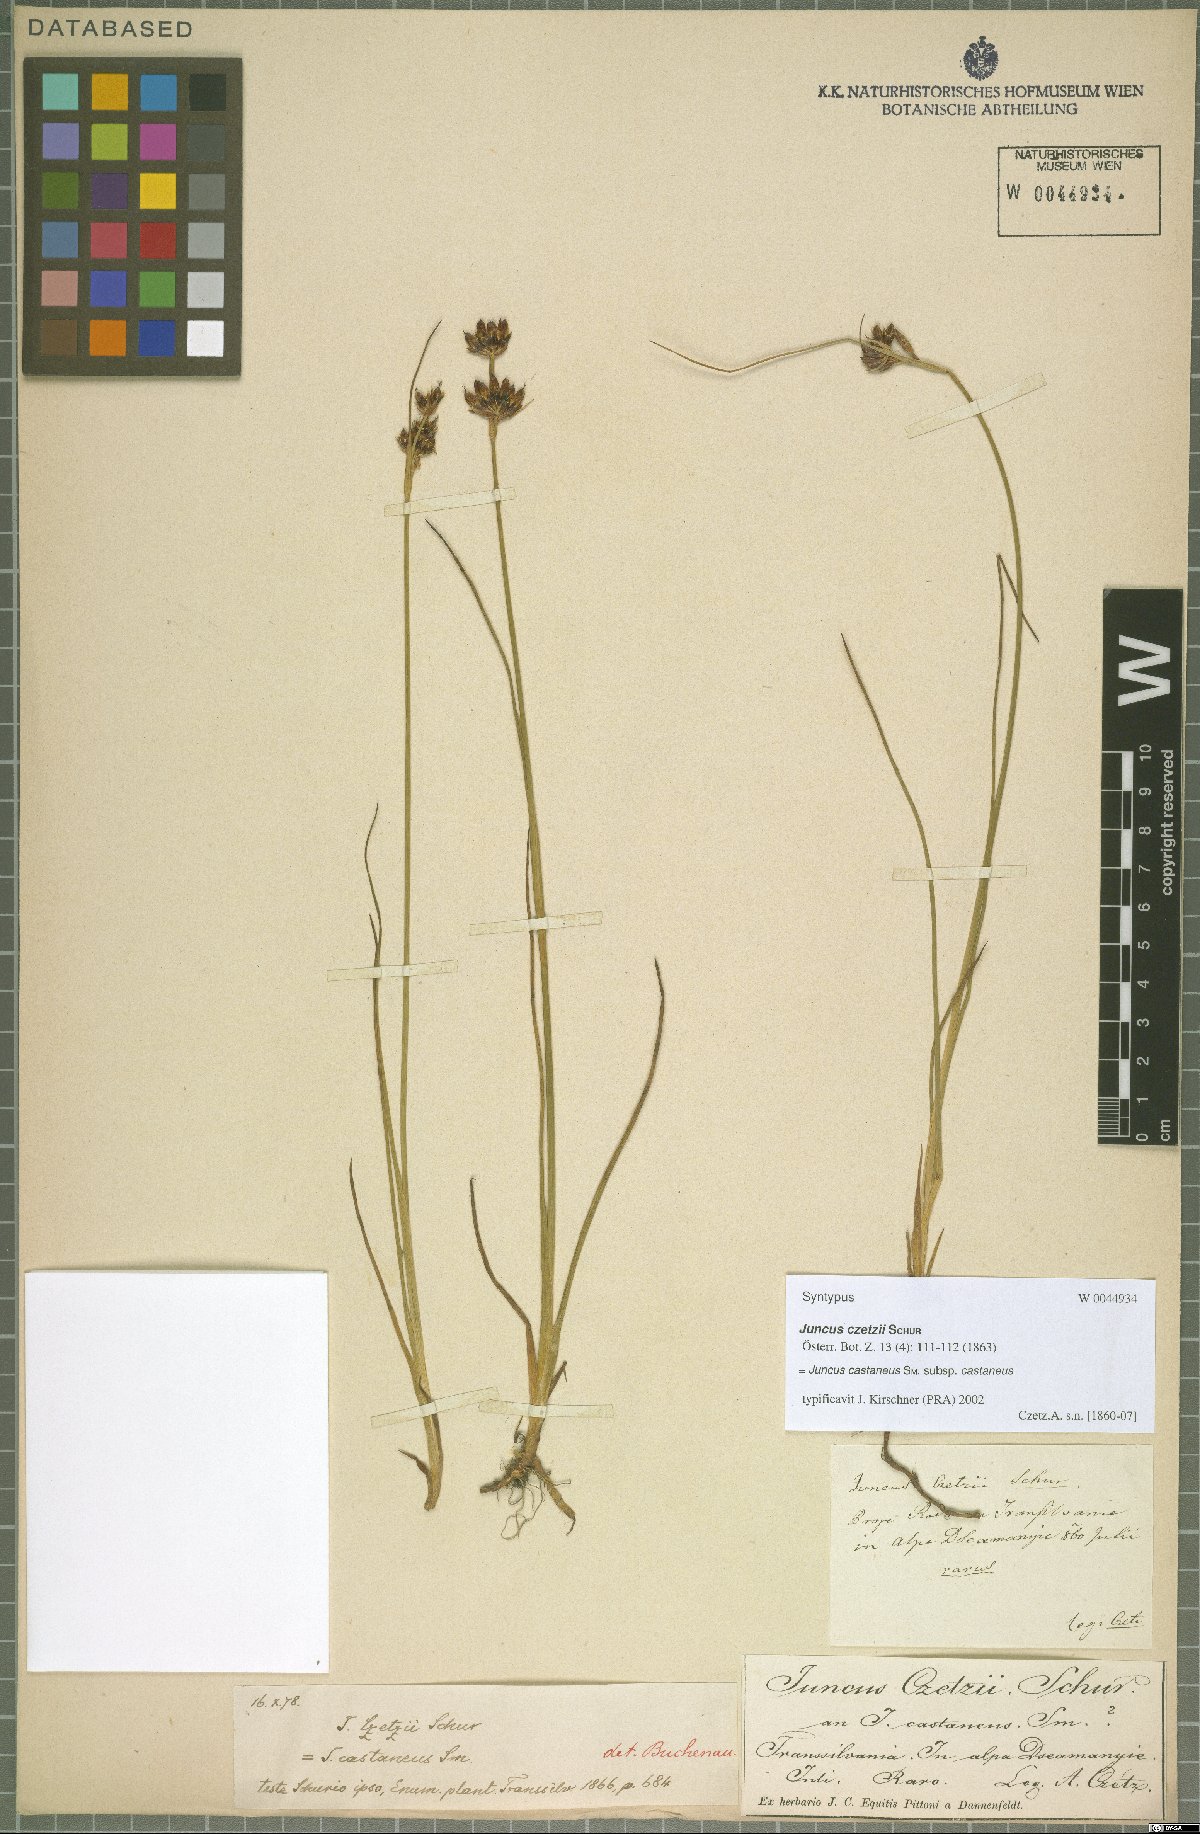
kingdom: Plantae
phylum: Tracheophyta
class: Liliopsida
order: Poales
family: Juncaceae
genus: Juncus
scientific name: Juncus castaneus
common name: Chestnut rush
